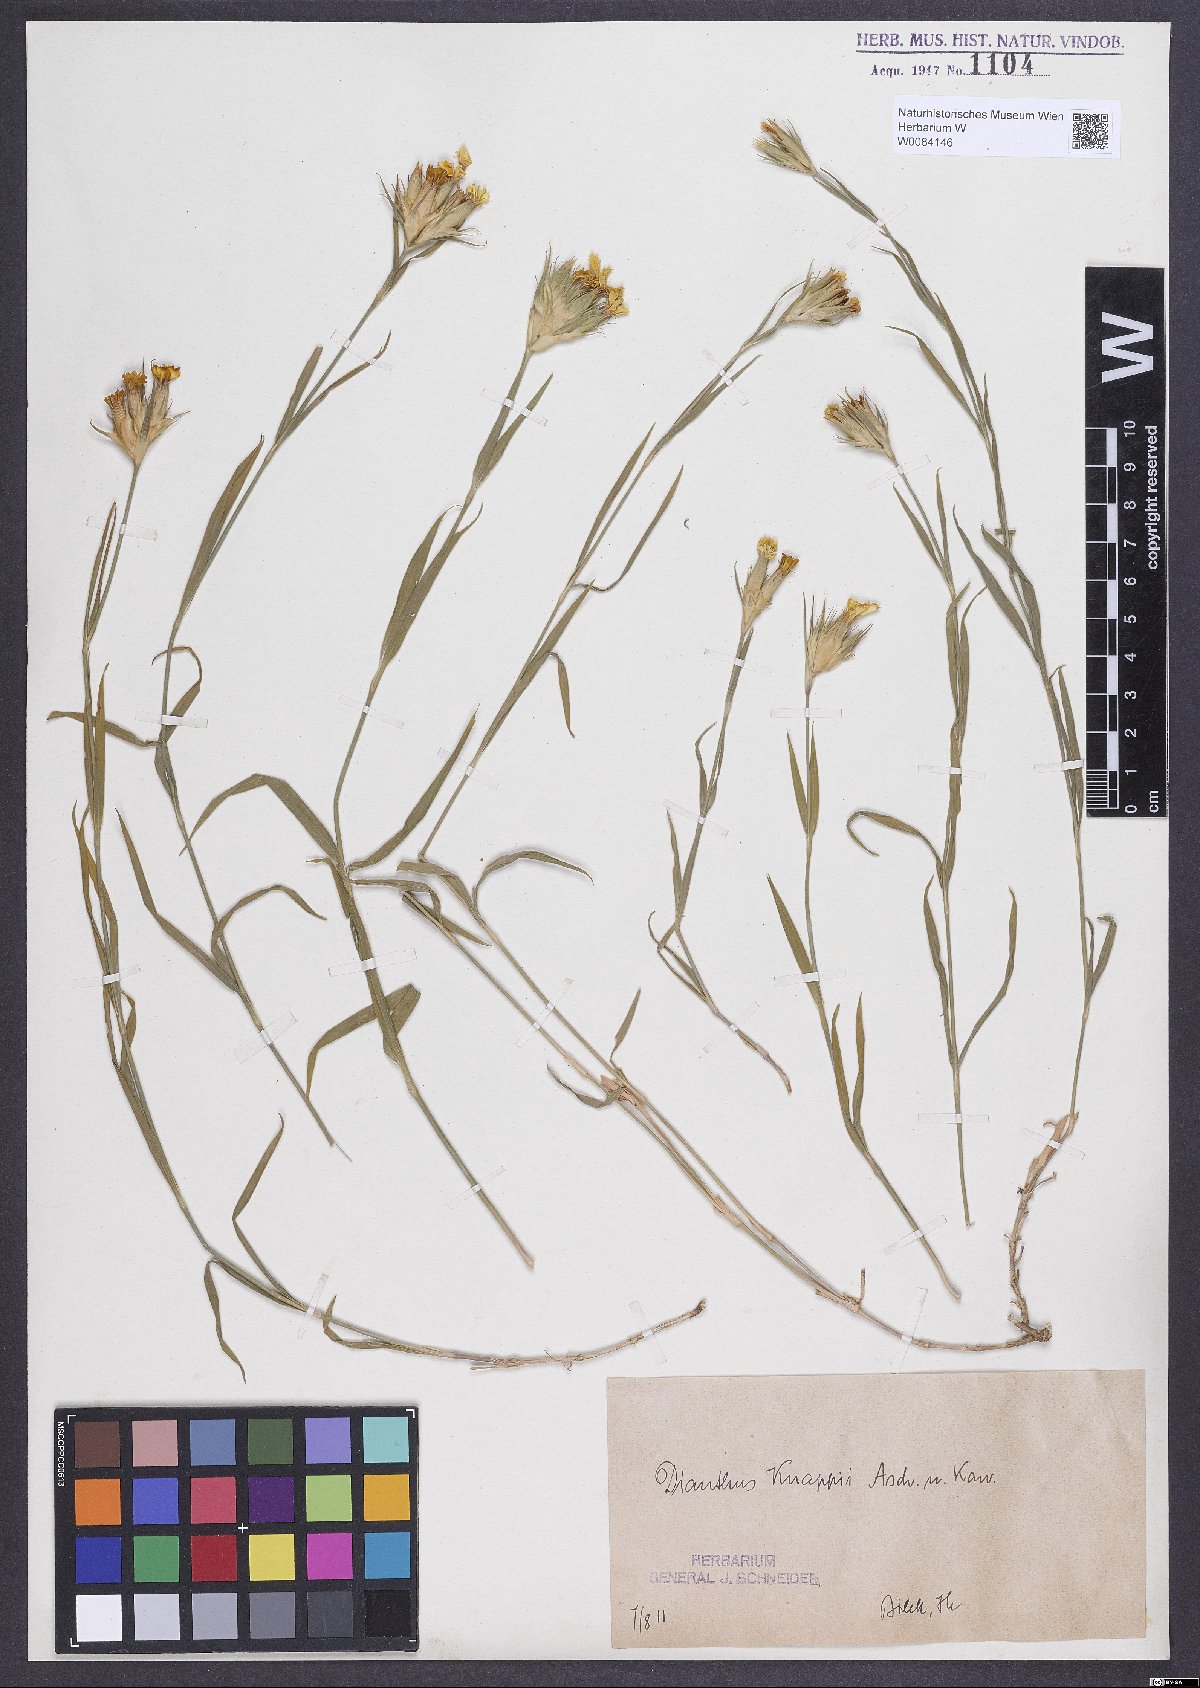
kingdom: Plantae
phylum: Tracheophyta
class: Magnoliopsida
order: Caryophyllales
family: Caryophyllaceae
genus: Dianthus
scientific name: Dianthus balbisii
